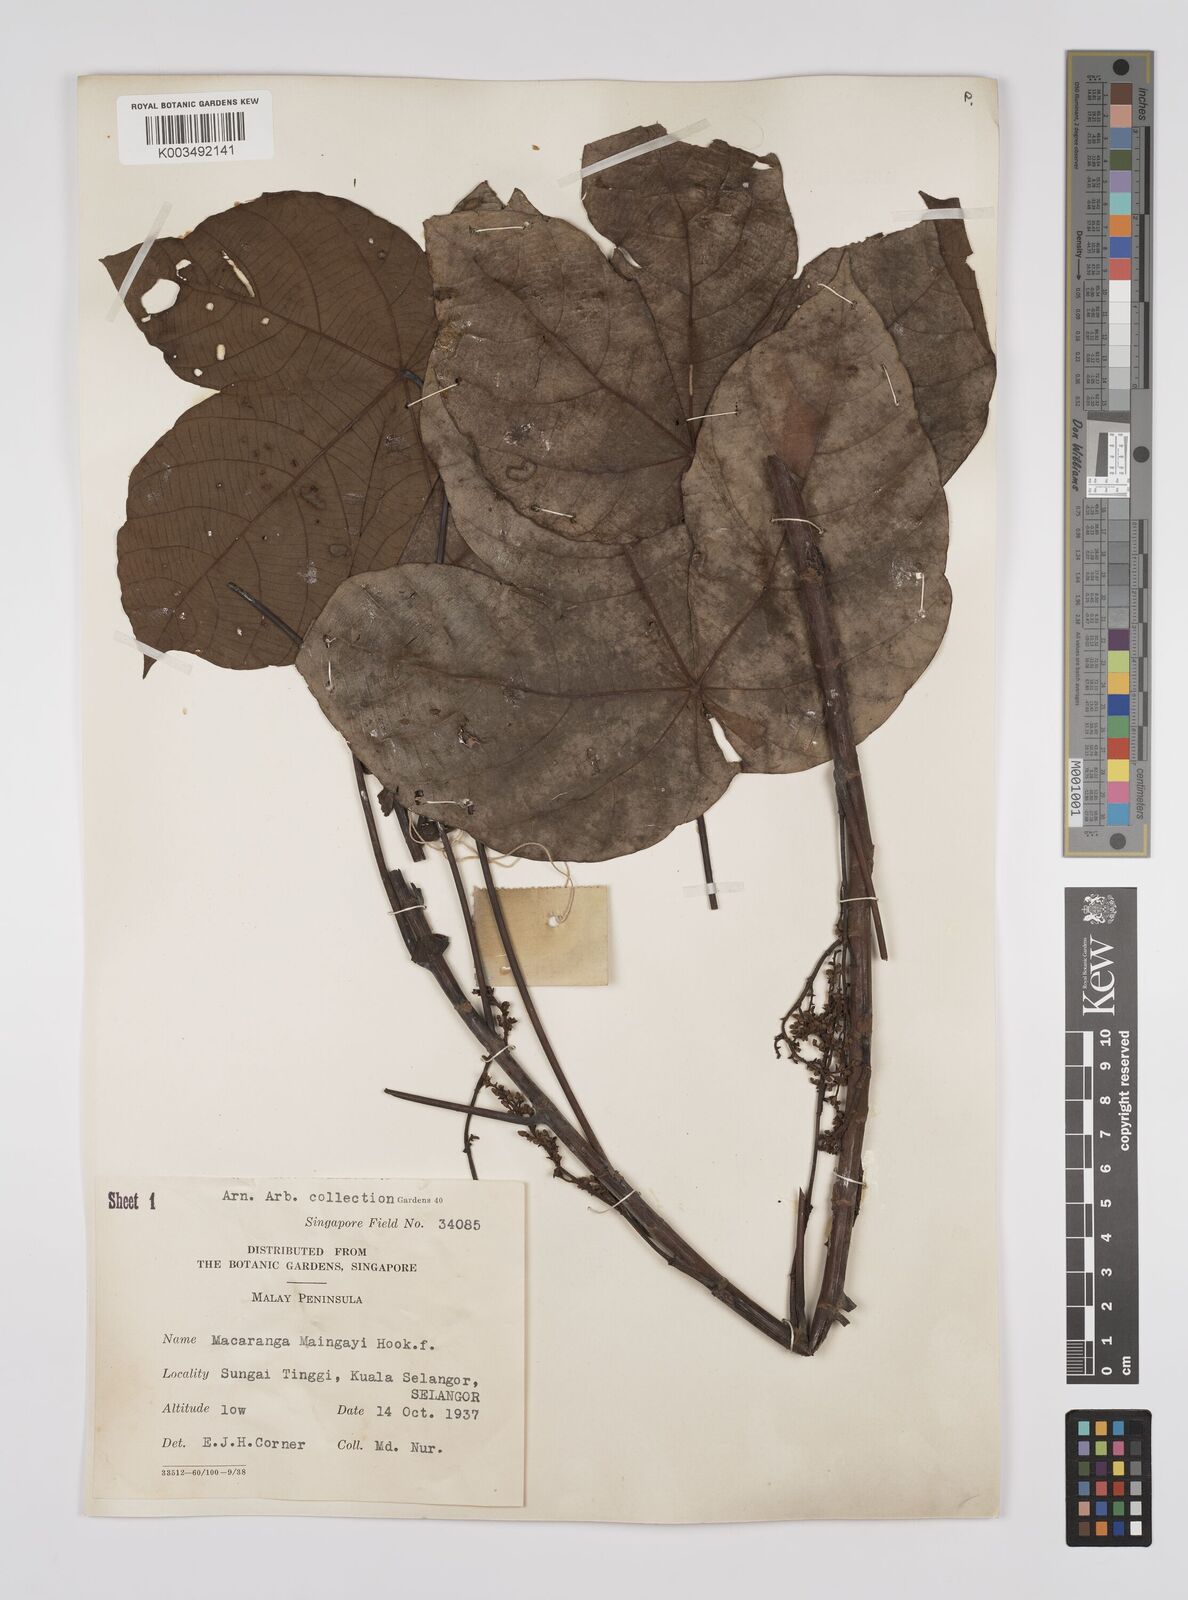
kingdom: Plantae
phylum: Tracheophyta
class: Magnoliopsida
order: Malpighiales
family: Euphorbiaceae
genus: Macaranga
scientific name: Macaranga pruinosa
